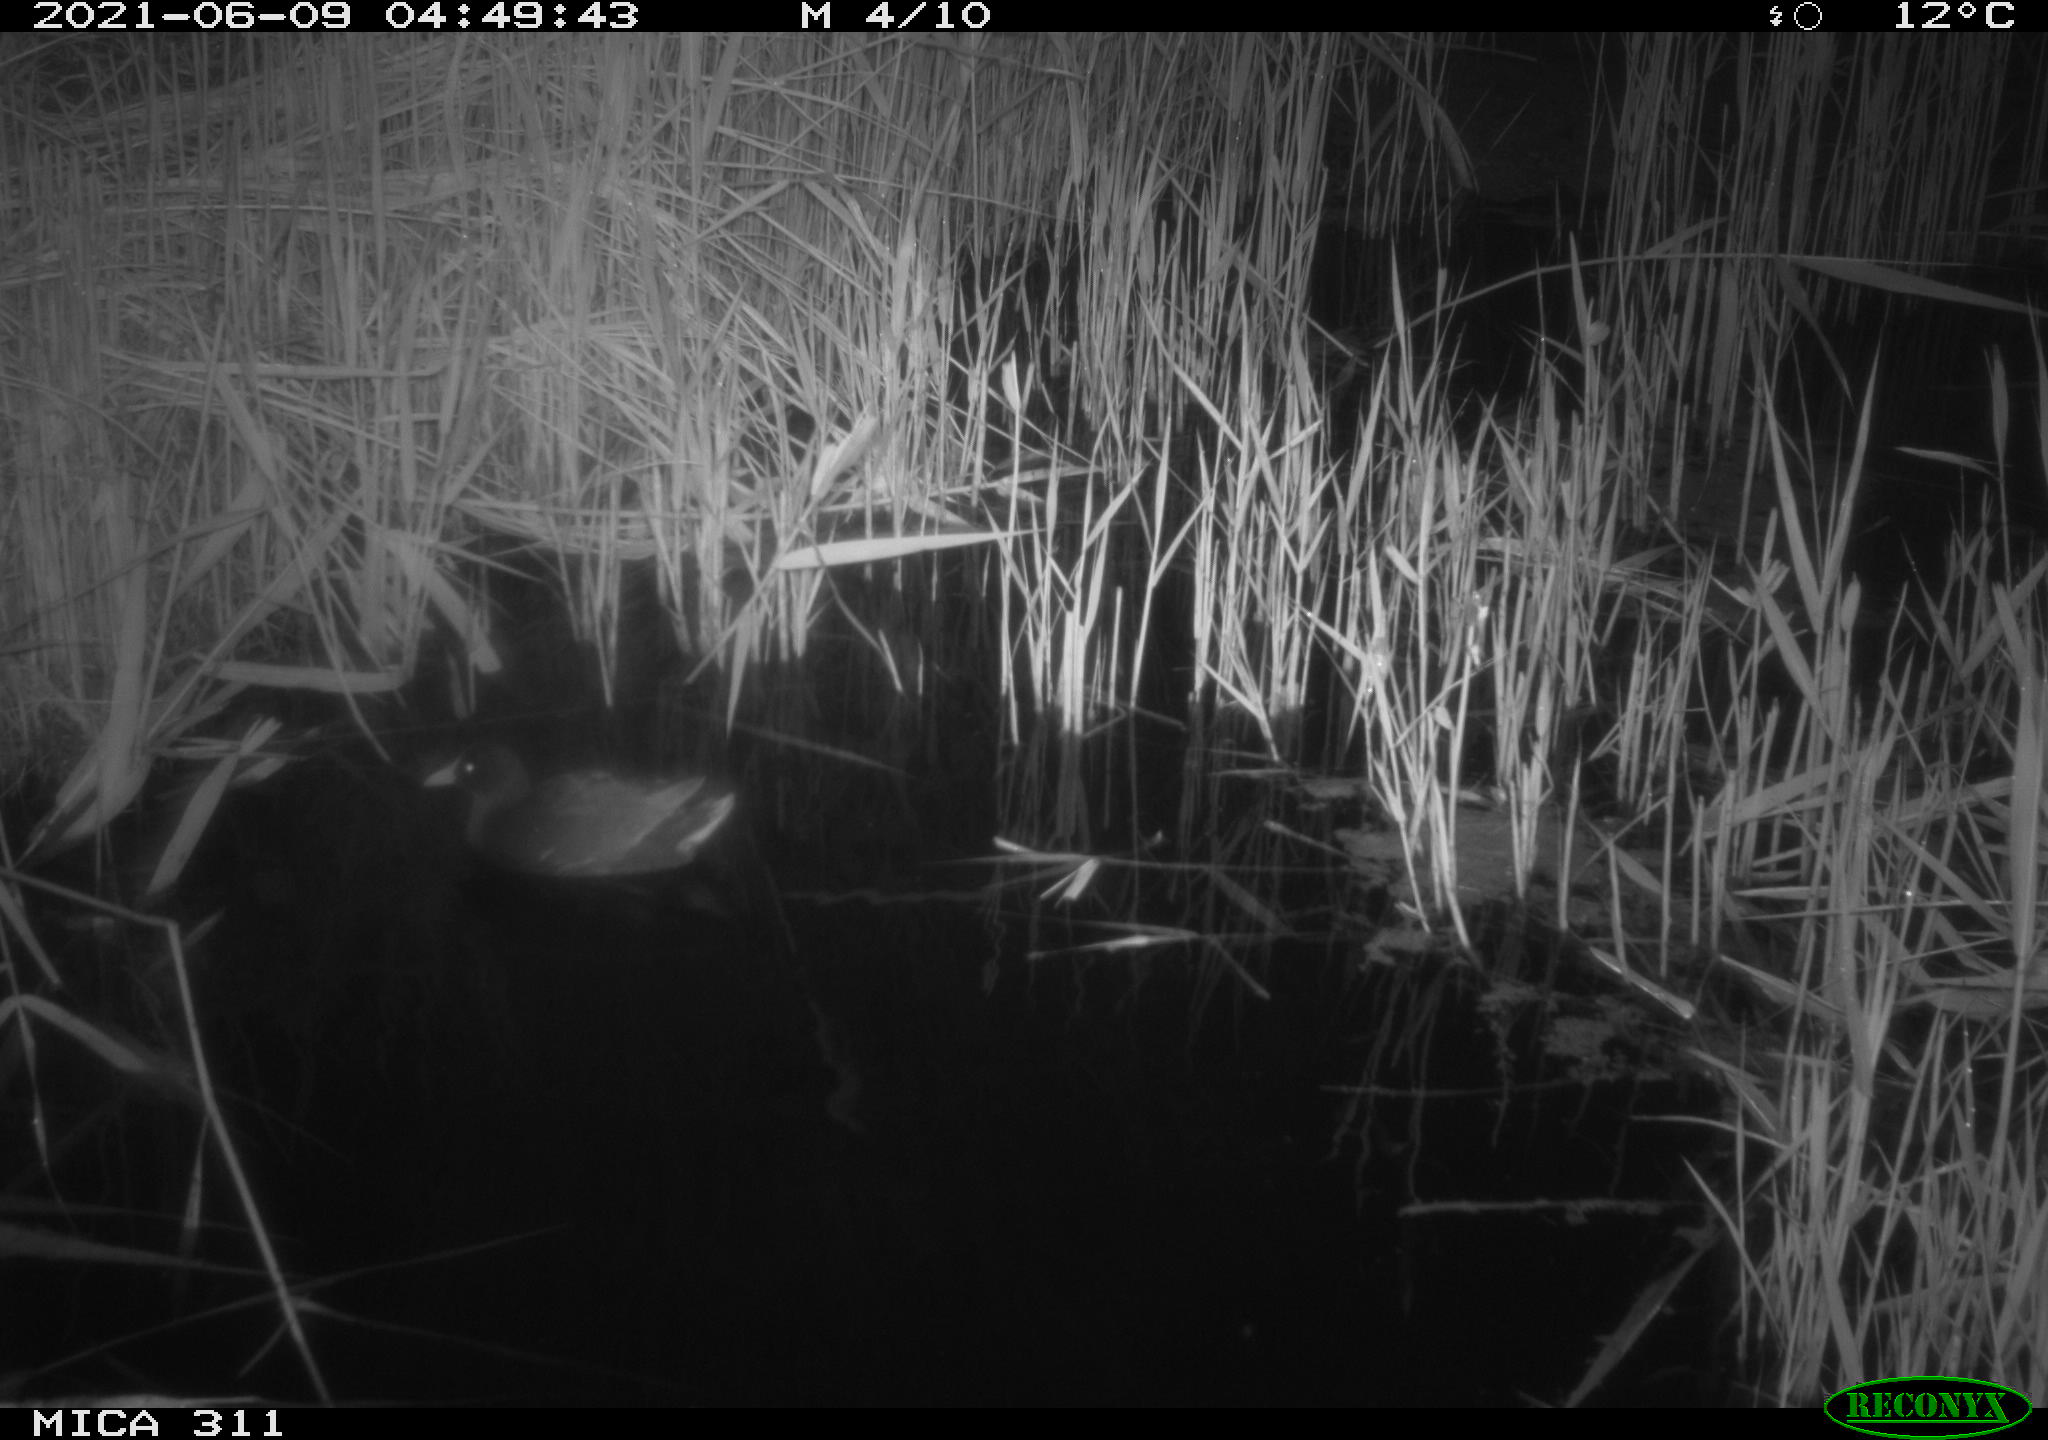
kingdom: Animalia
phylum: Chordata
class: Aves
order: Gruiformes
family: Rallidae
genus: Gallinula
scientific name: Gallinula chloropus
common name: Common moorhen
